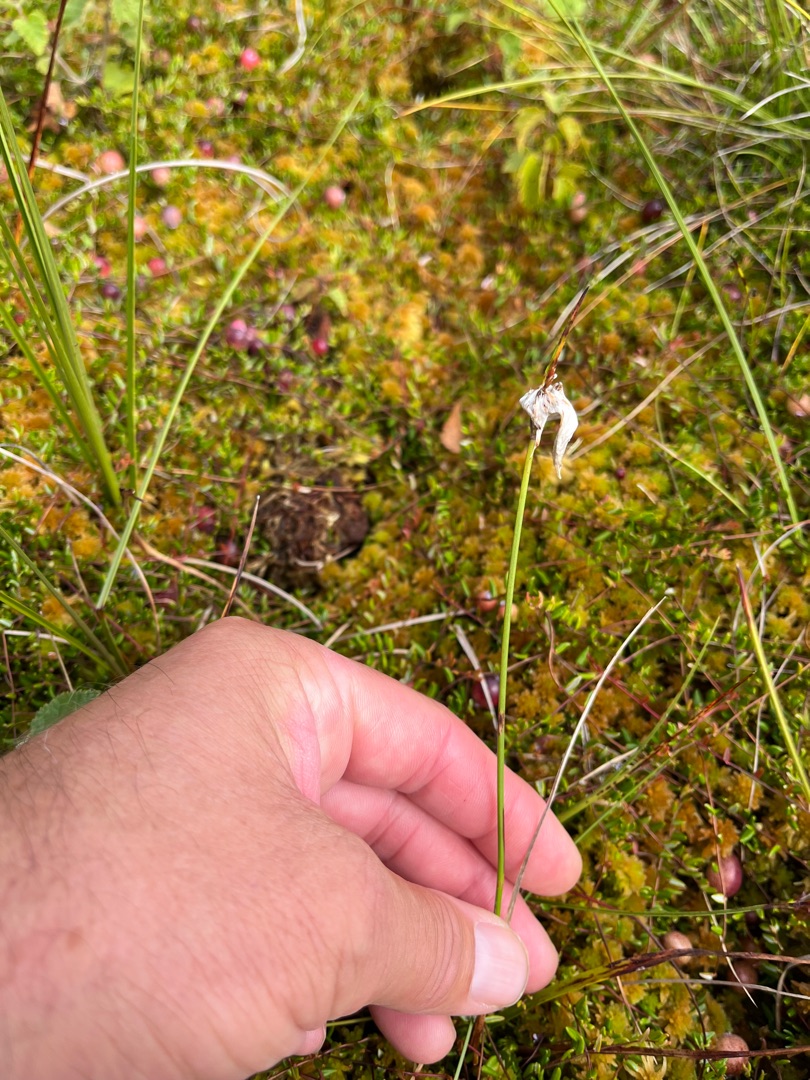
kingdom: Plantae
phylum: Tracheophyta
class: Liliopsida
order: Poales
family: Cyperaceae
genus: Eriophorum
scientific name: Eriophorum angustifolium
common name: Smalbladet kæruld
